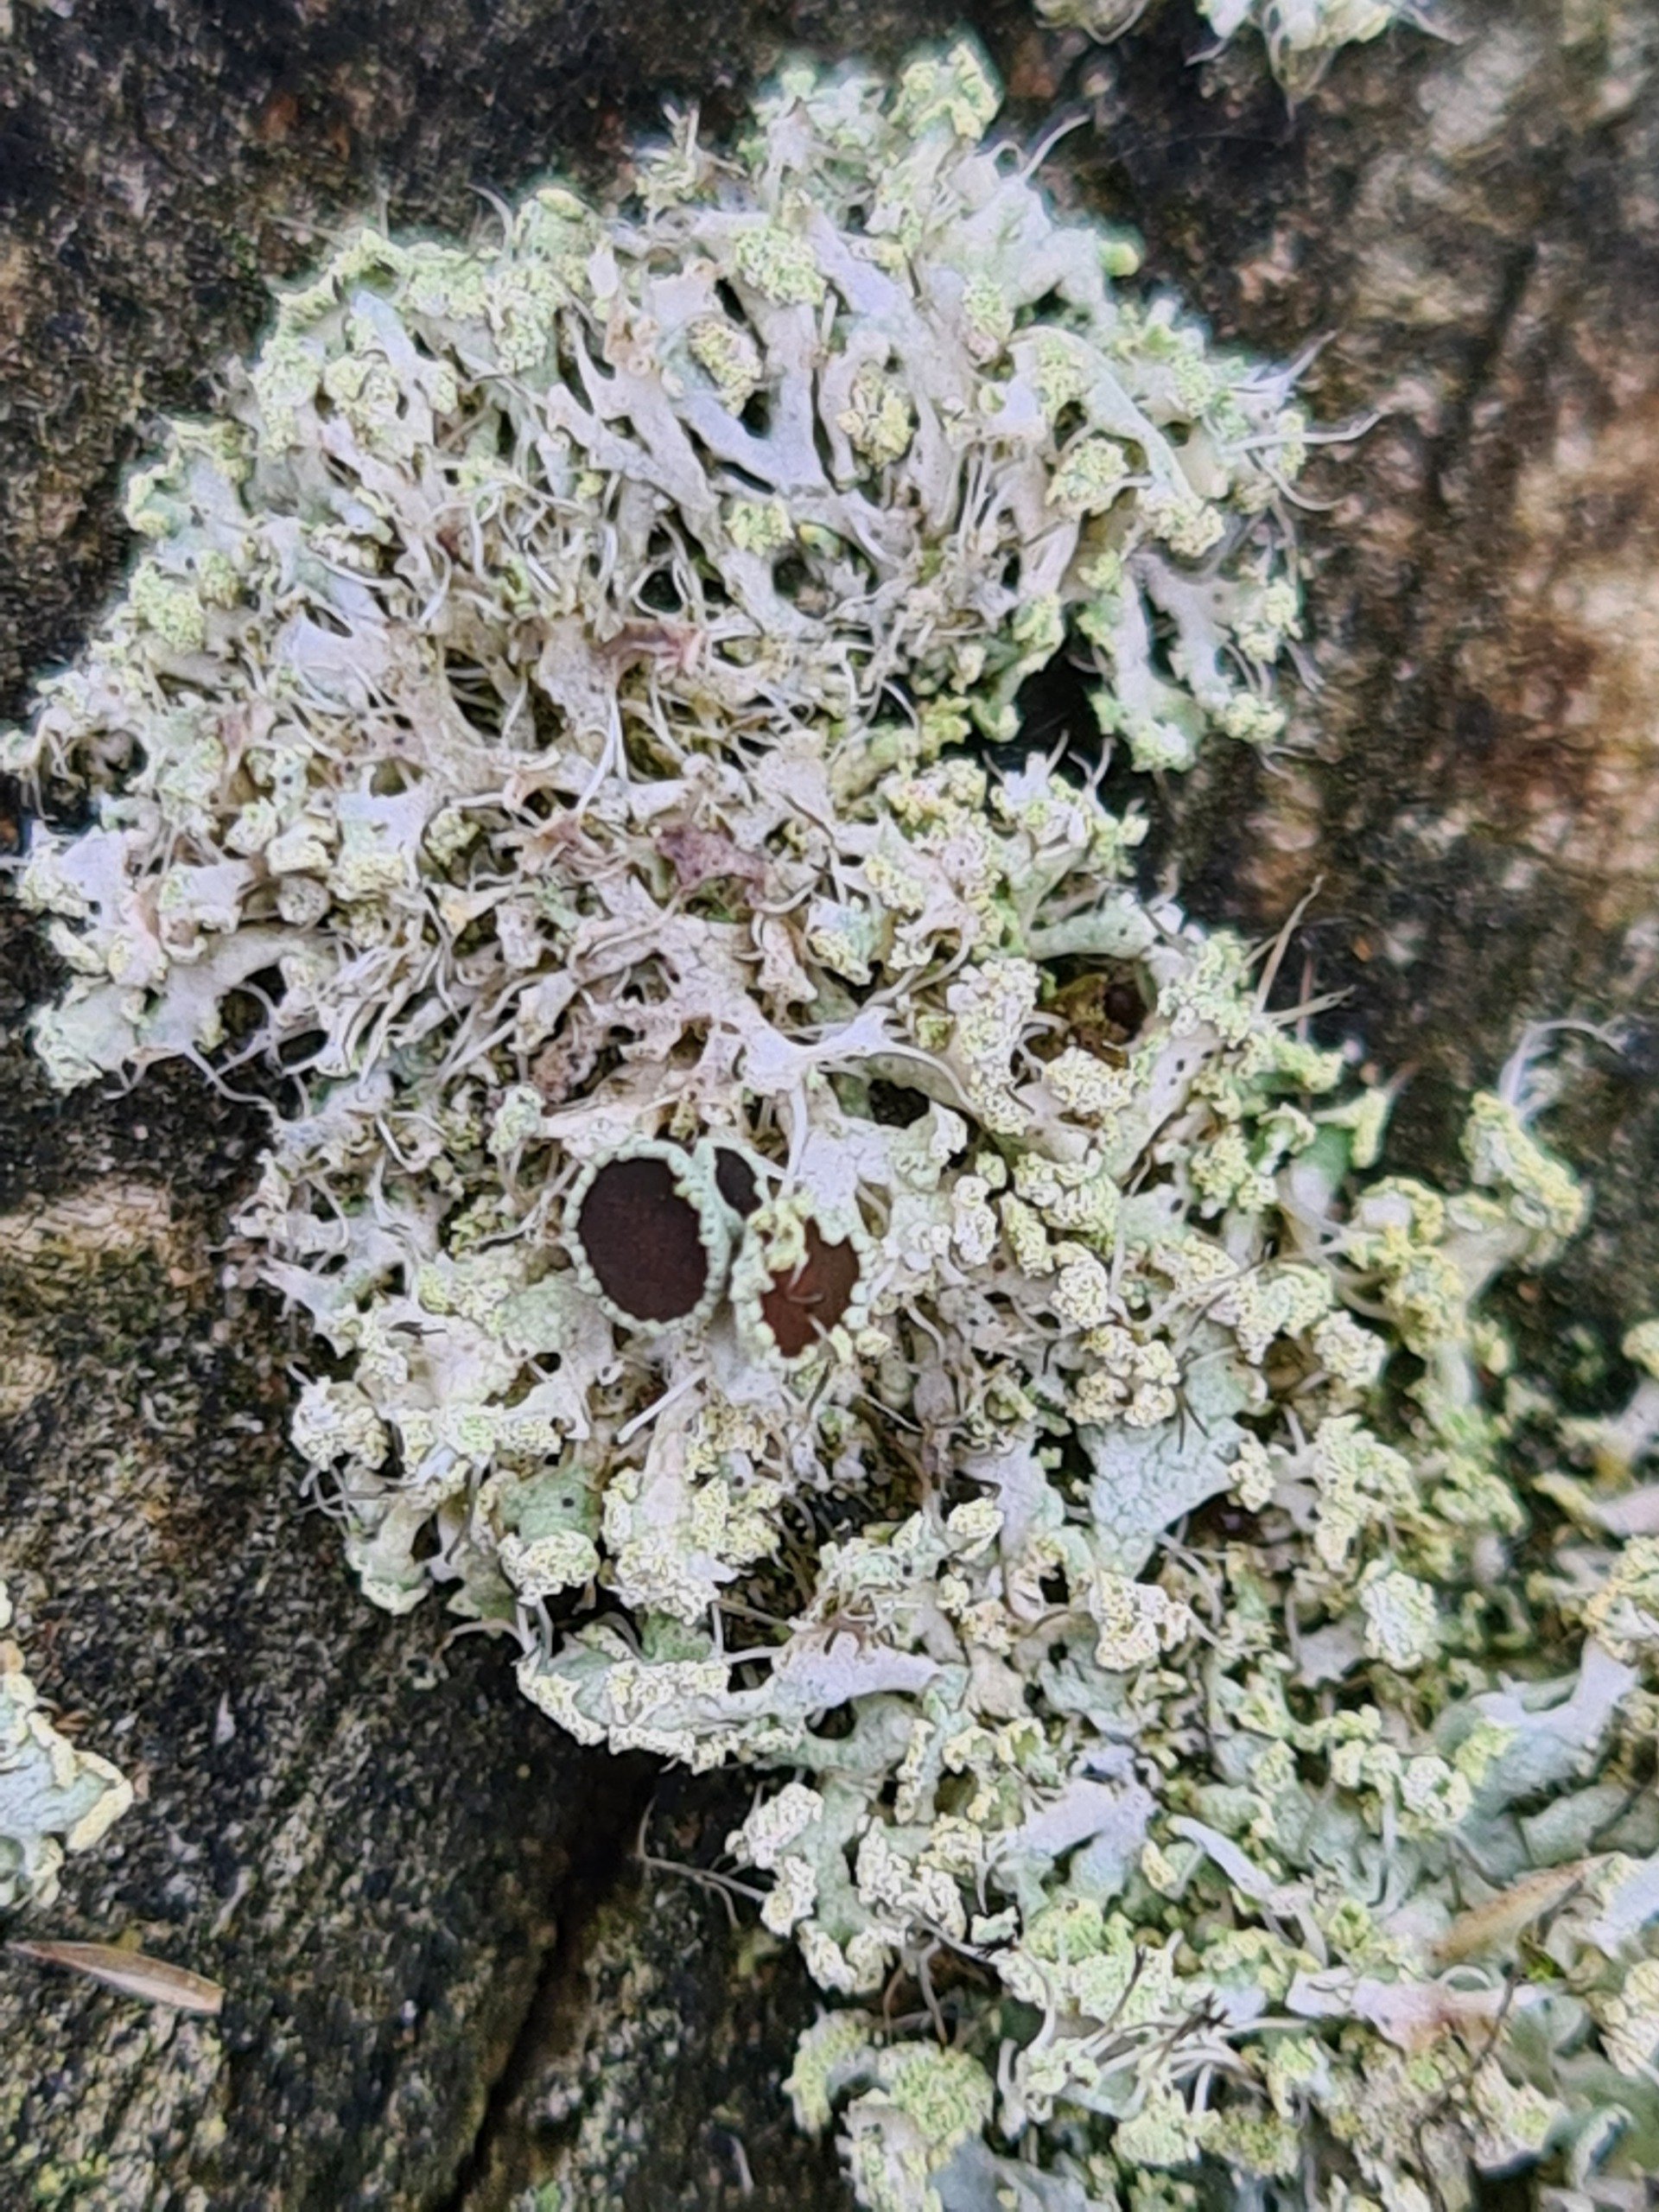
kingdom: Fungi
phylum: Ascomycota
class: Lecanoromycetes
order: Caliciales
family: Physciaceae
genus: Physcia
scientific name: Physcia tenella
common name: Spæd rosetlav
